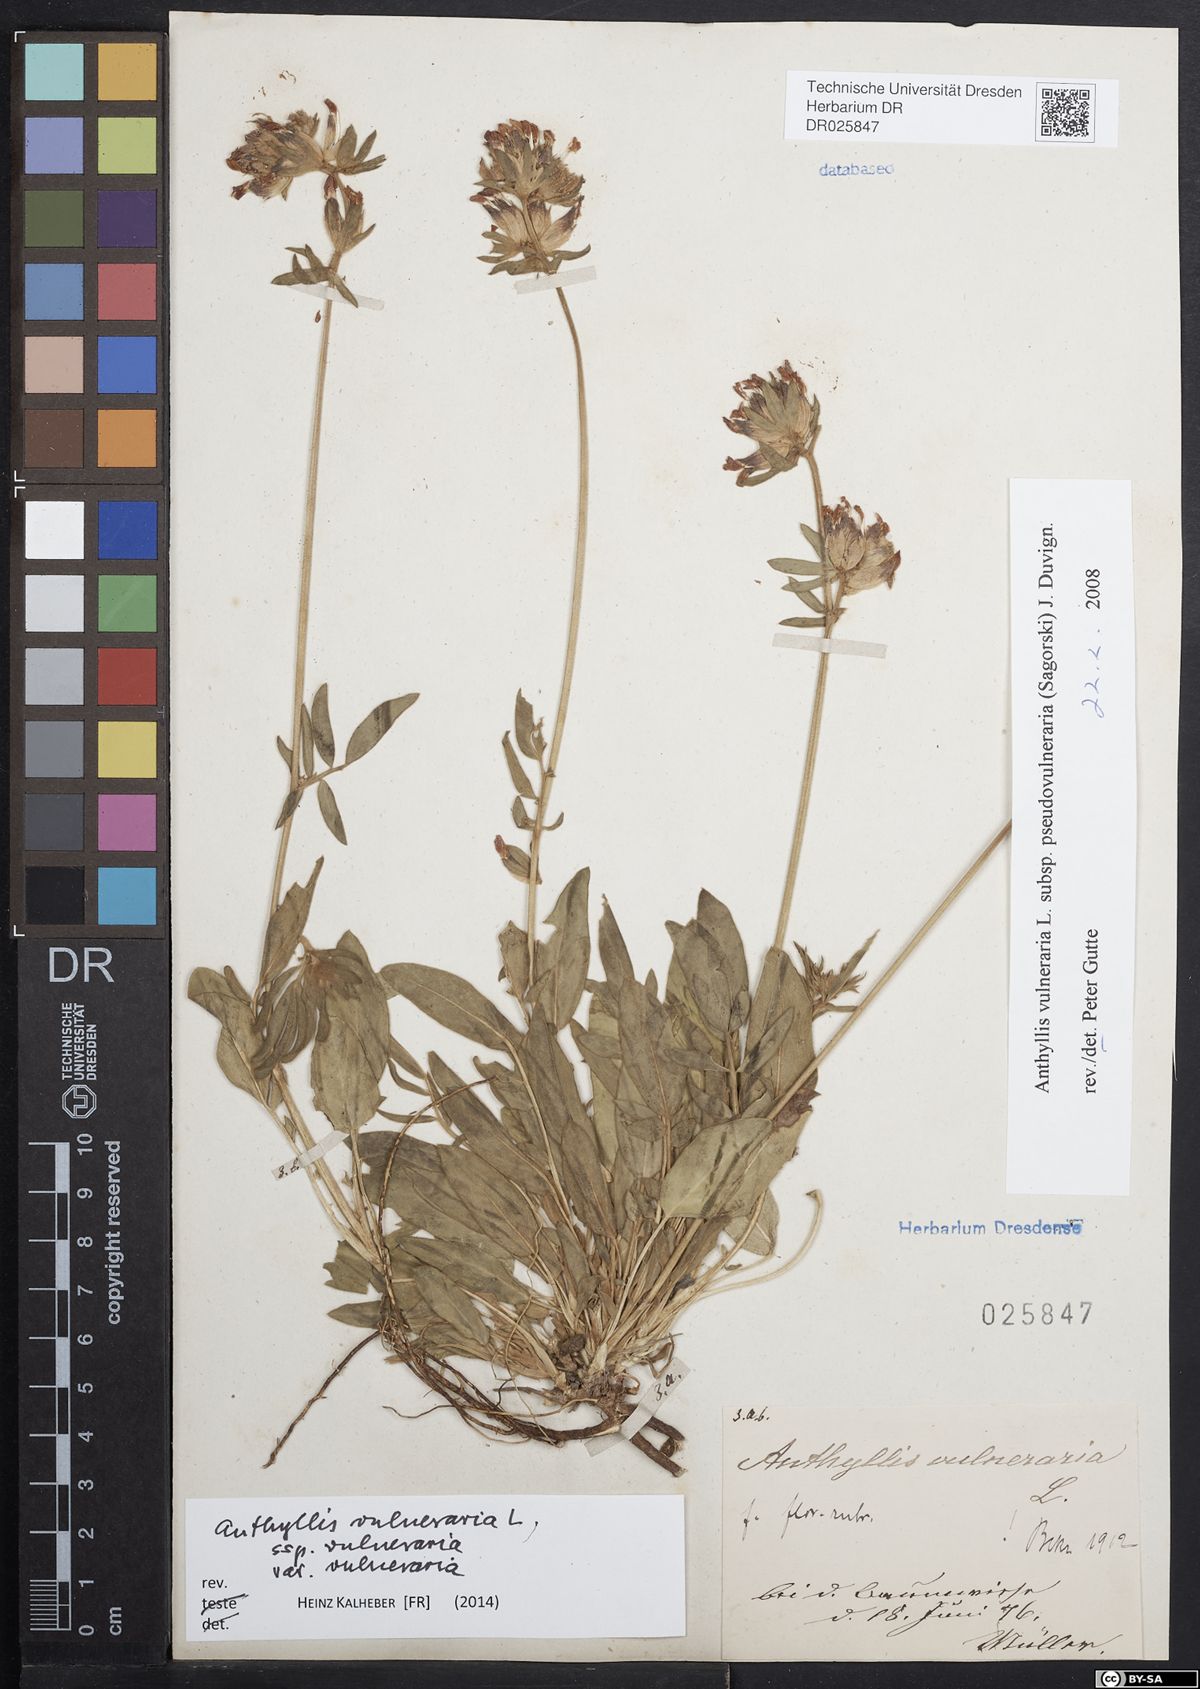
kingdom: Plantae
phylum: Tracheophyta
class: Magnoliopsida
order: Fabales
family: Fabaceae
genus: Anthyllis
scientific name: Anthyllis vulneraria
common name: Kidney vetch
